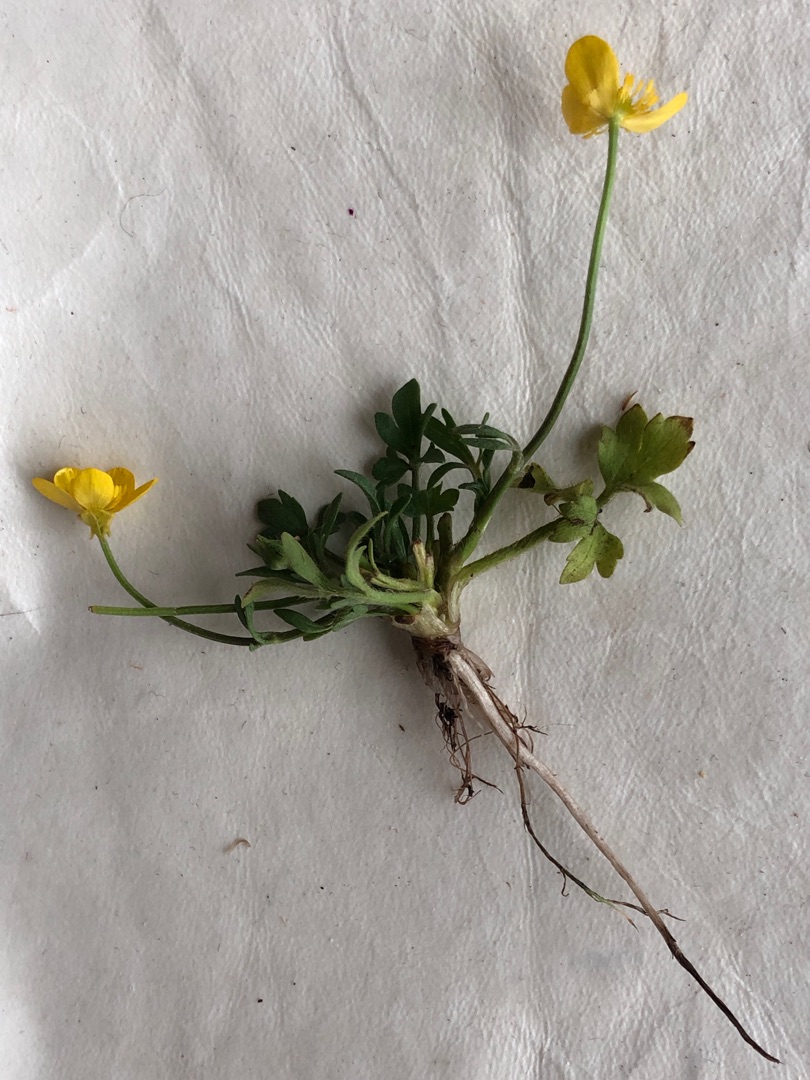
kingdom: Plantae
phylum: Tracheophyta
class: Magnoliopsida
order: Ranunculales
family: Ranunculaceae
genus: Ranunculus
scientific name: Ranunculus sardous
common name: Stivhåret ranunkel
